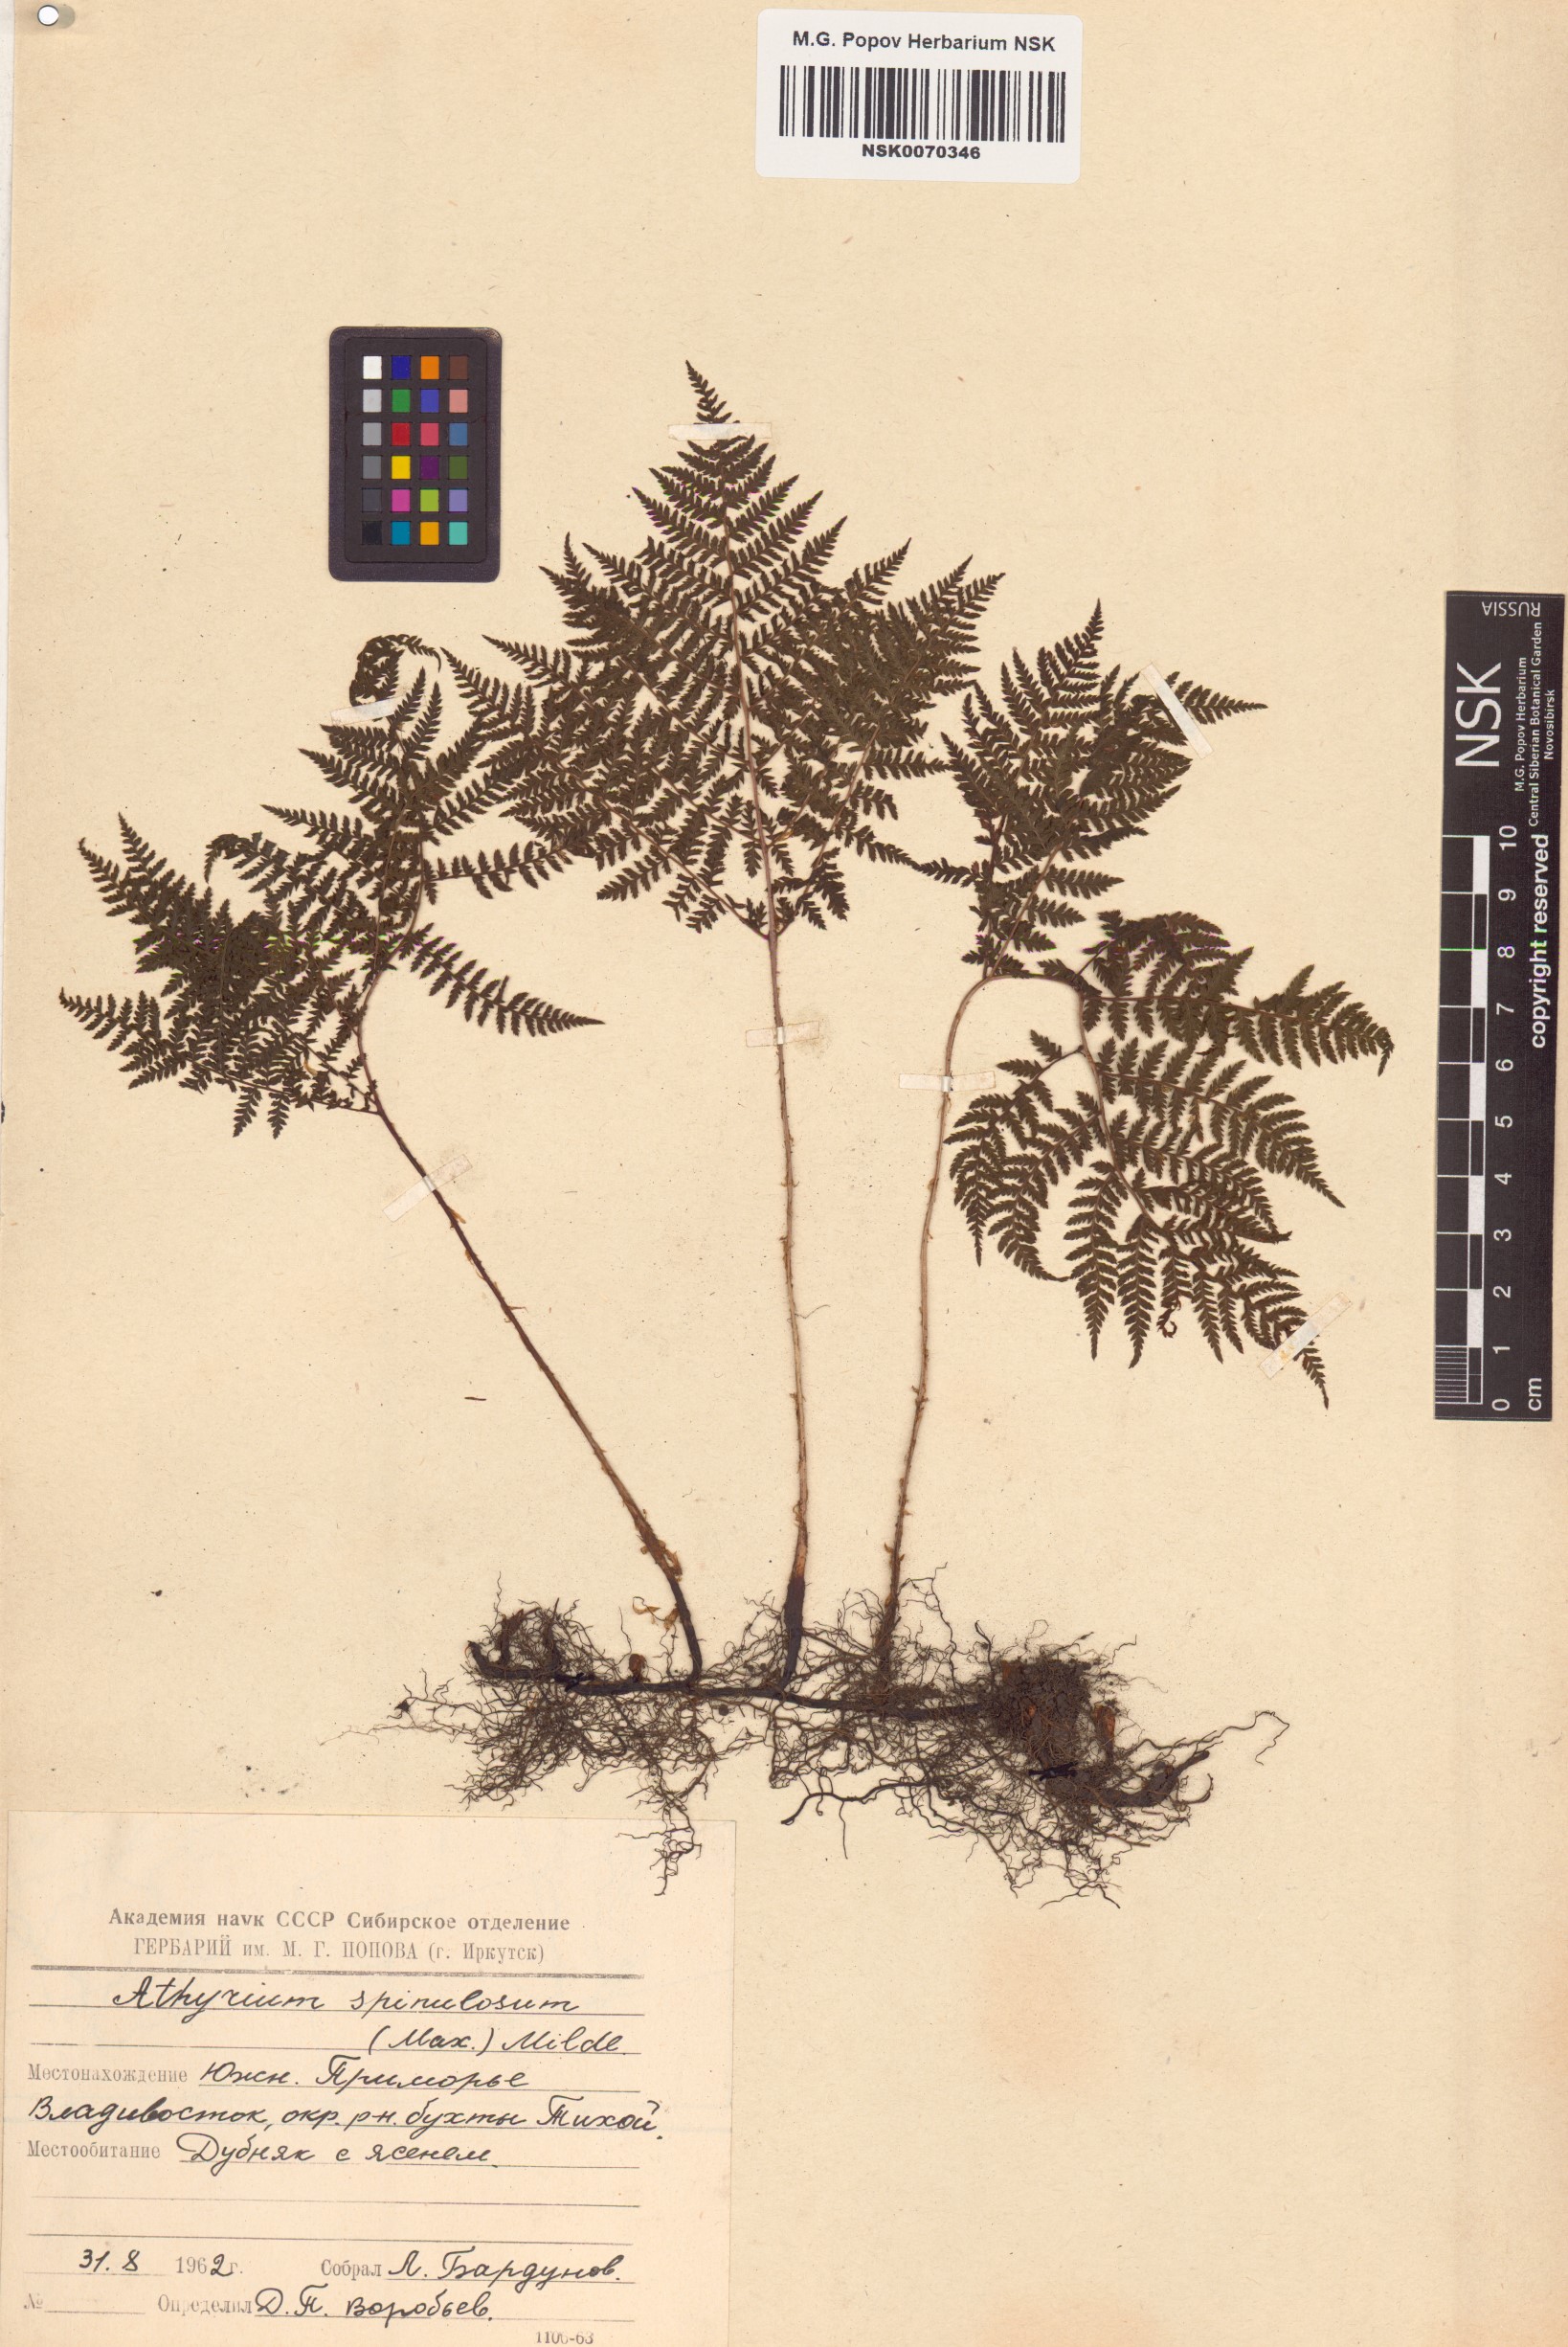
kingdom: Plantae
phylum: Tracheophyta
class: Polypodiopsida
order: Polypodiales
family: Athyriaceae
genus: Athyrium
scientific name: Athyrium spinulosum
